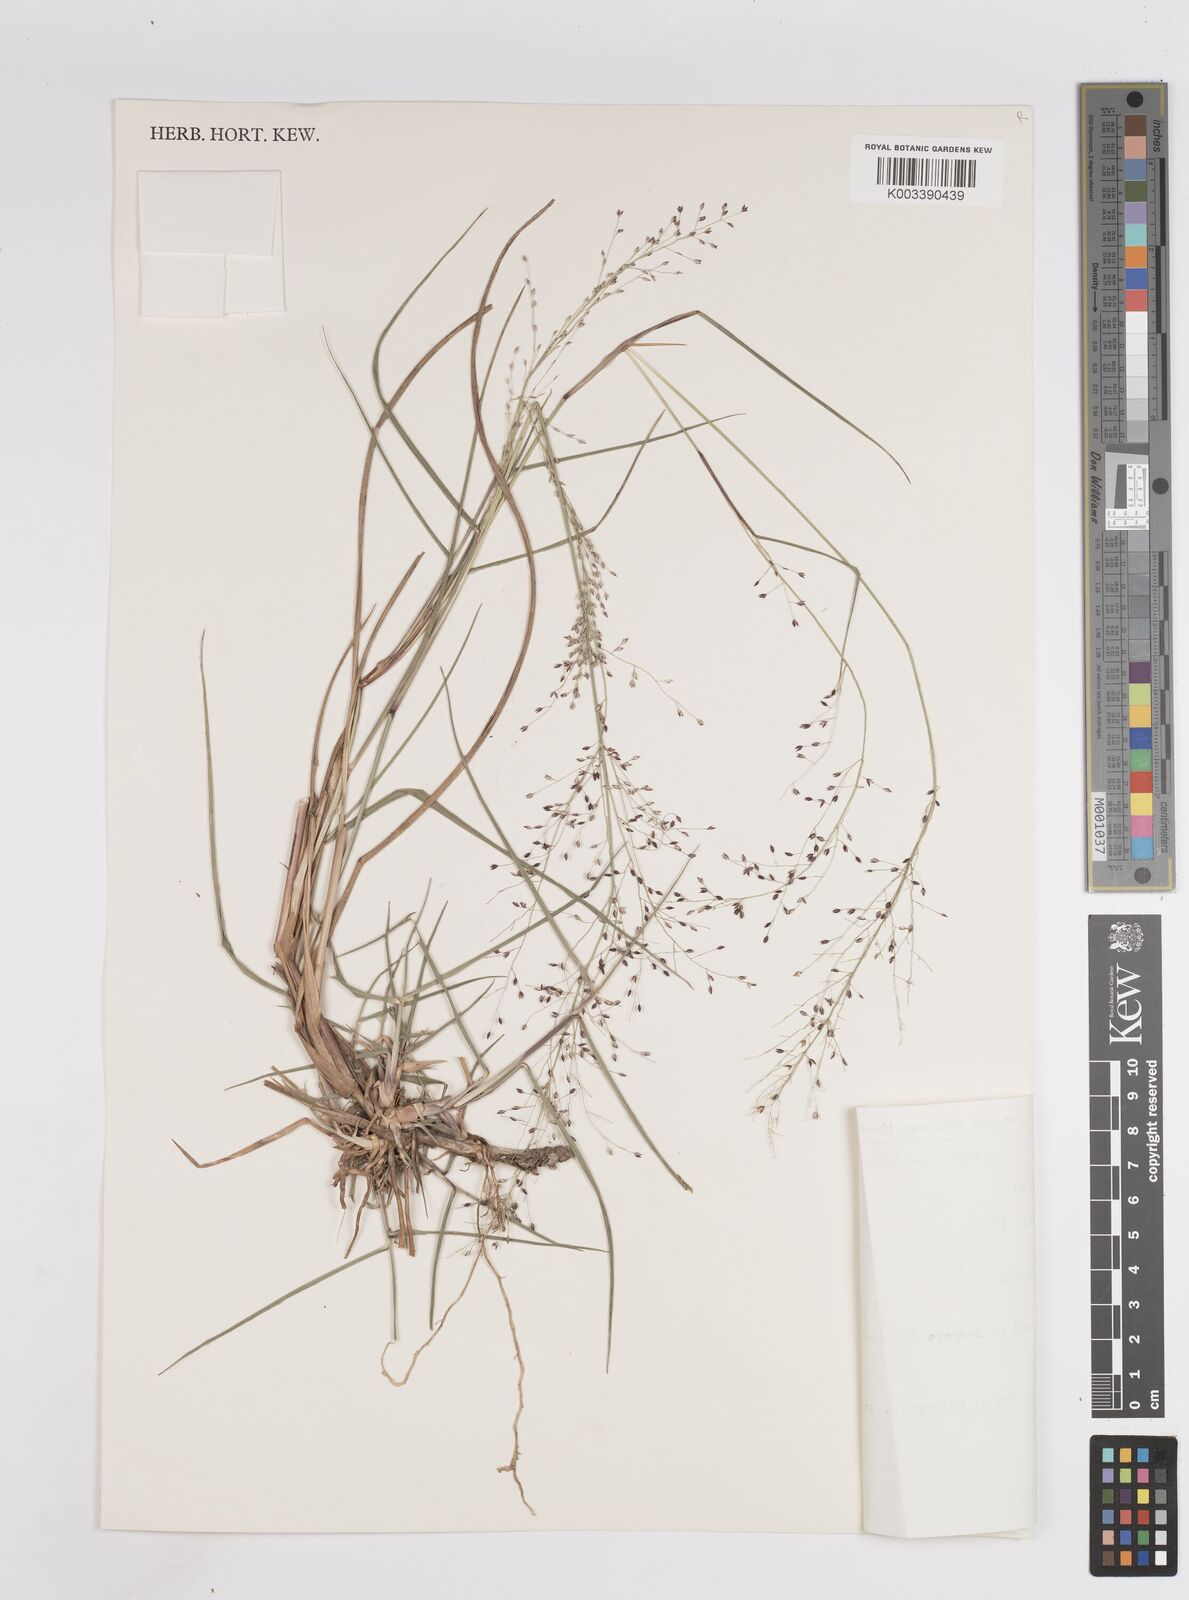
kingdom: Plantae
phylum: Tracheophyta
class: Liliopsida
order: Poales
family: Poaceae
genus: Panicum
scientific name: Panicum genuflexum
